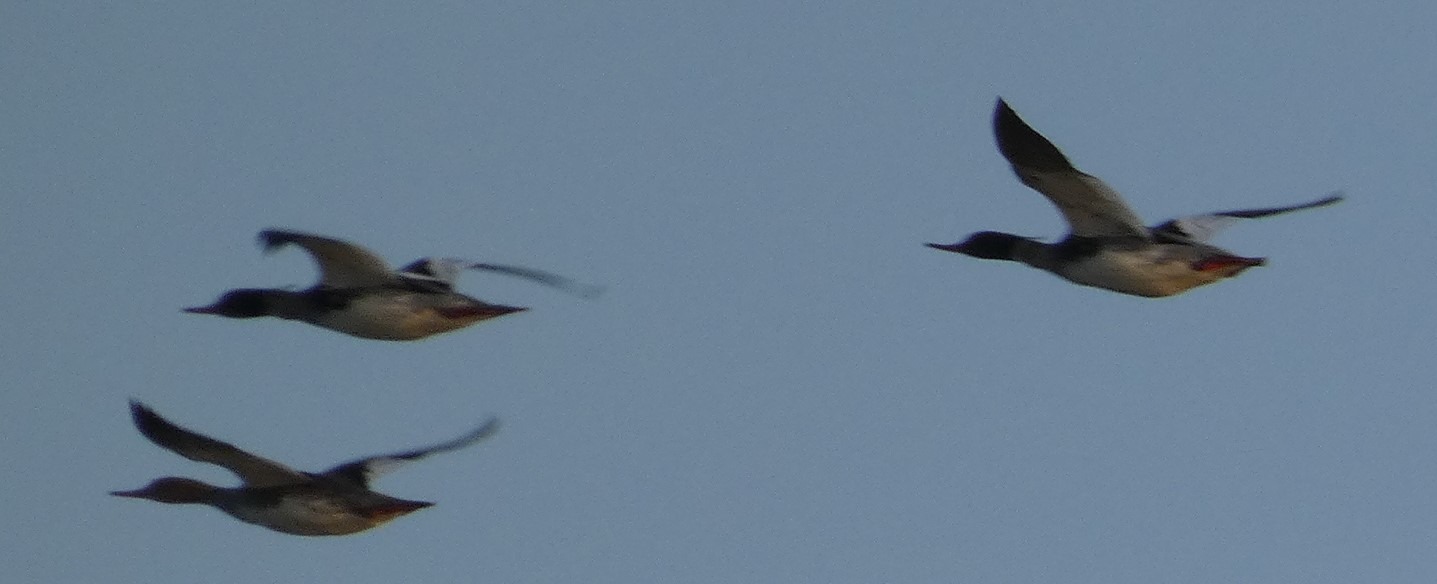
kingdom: Animalia
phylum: Chordata
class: Aves
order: Anseriformes
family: Anatidae
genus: Mergus
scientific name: Mergus serrator
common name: Toppet skallesluger
